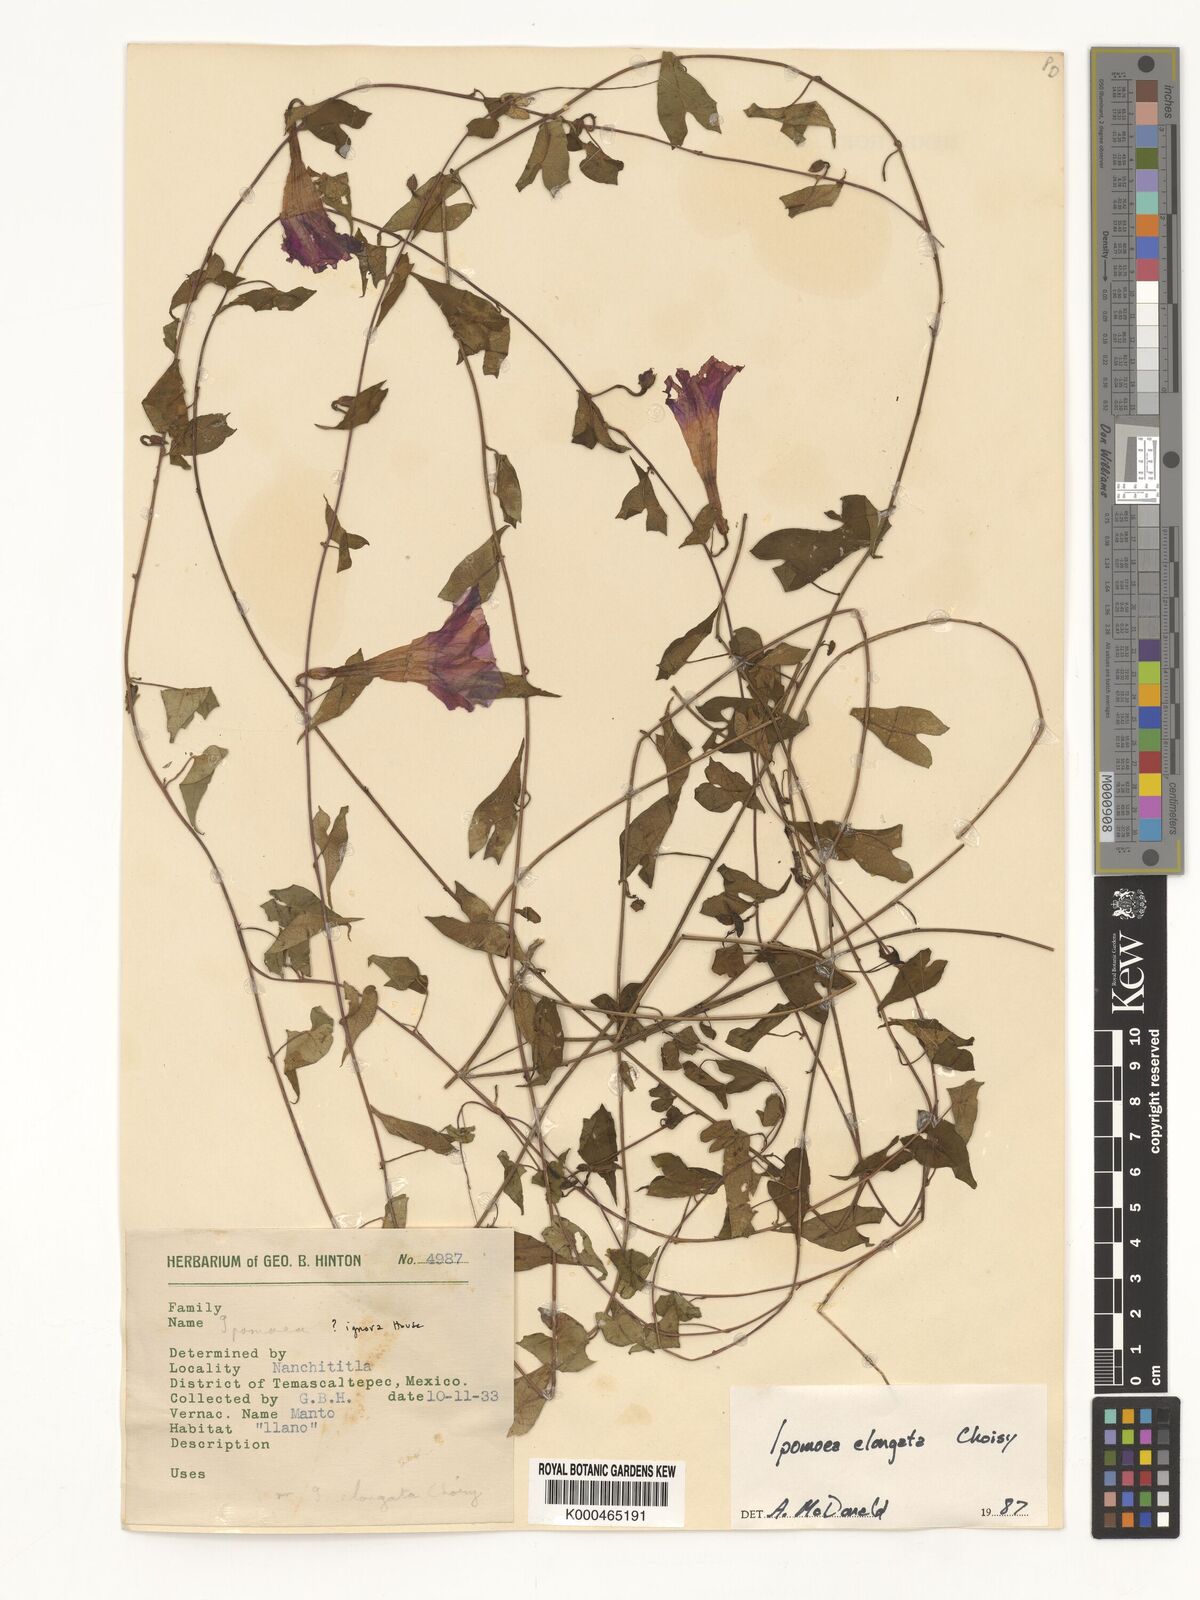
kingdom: Plantae
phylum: Tracheophyta
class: Magnoliopsida
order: Solanales
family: Convolvulaceae
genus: Ipomoea
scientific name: Ipomoea elongata
